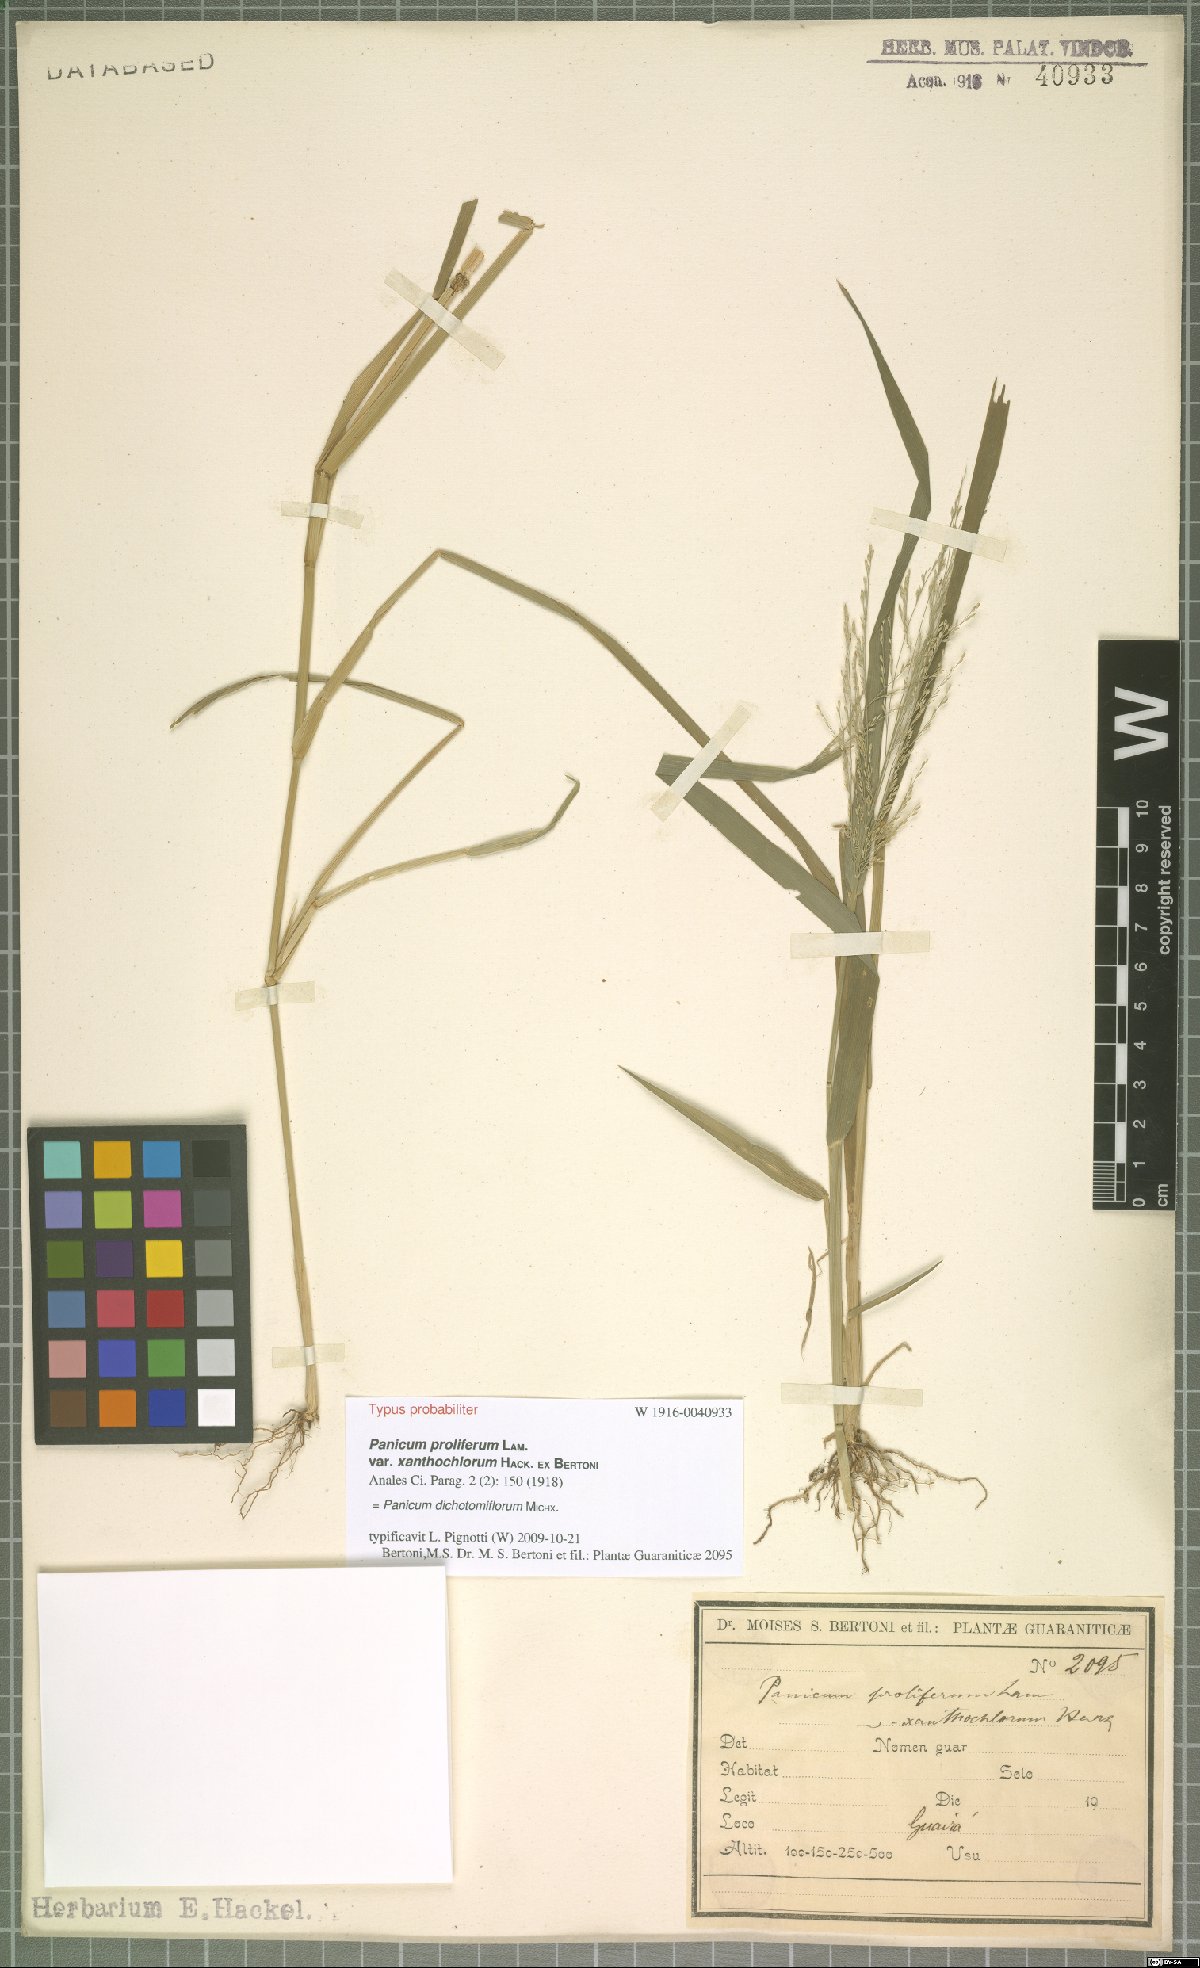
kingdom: Plantae
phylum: Tracheophyta
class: Liliopsida
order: Poales
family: Poaceae
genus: Panicum
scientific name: Panicum dichotomiflorum
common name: Autumn millet
